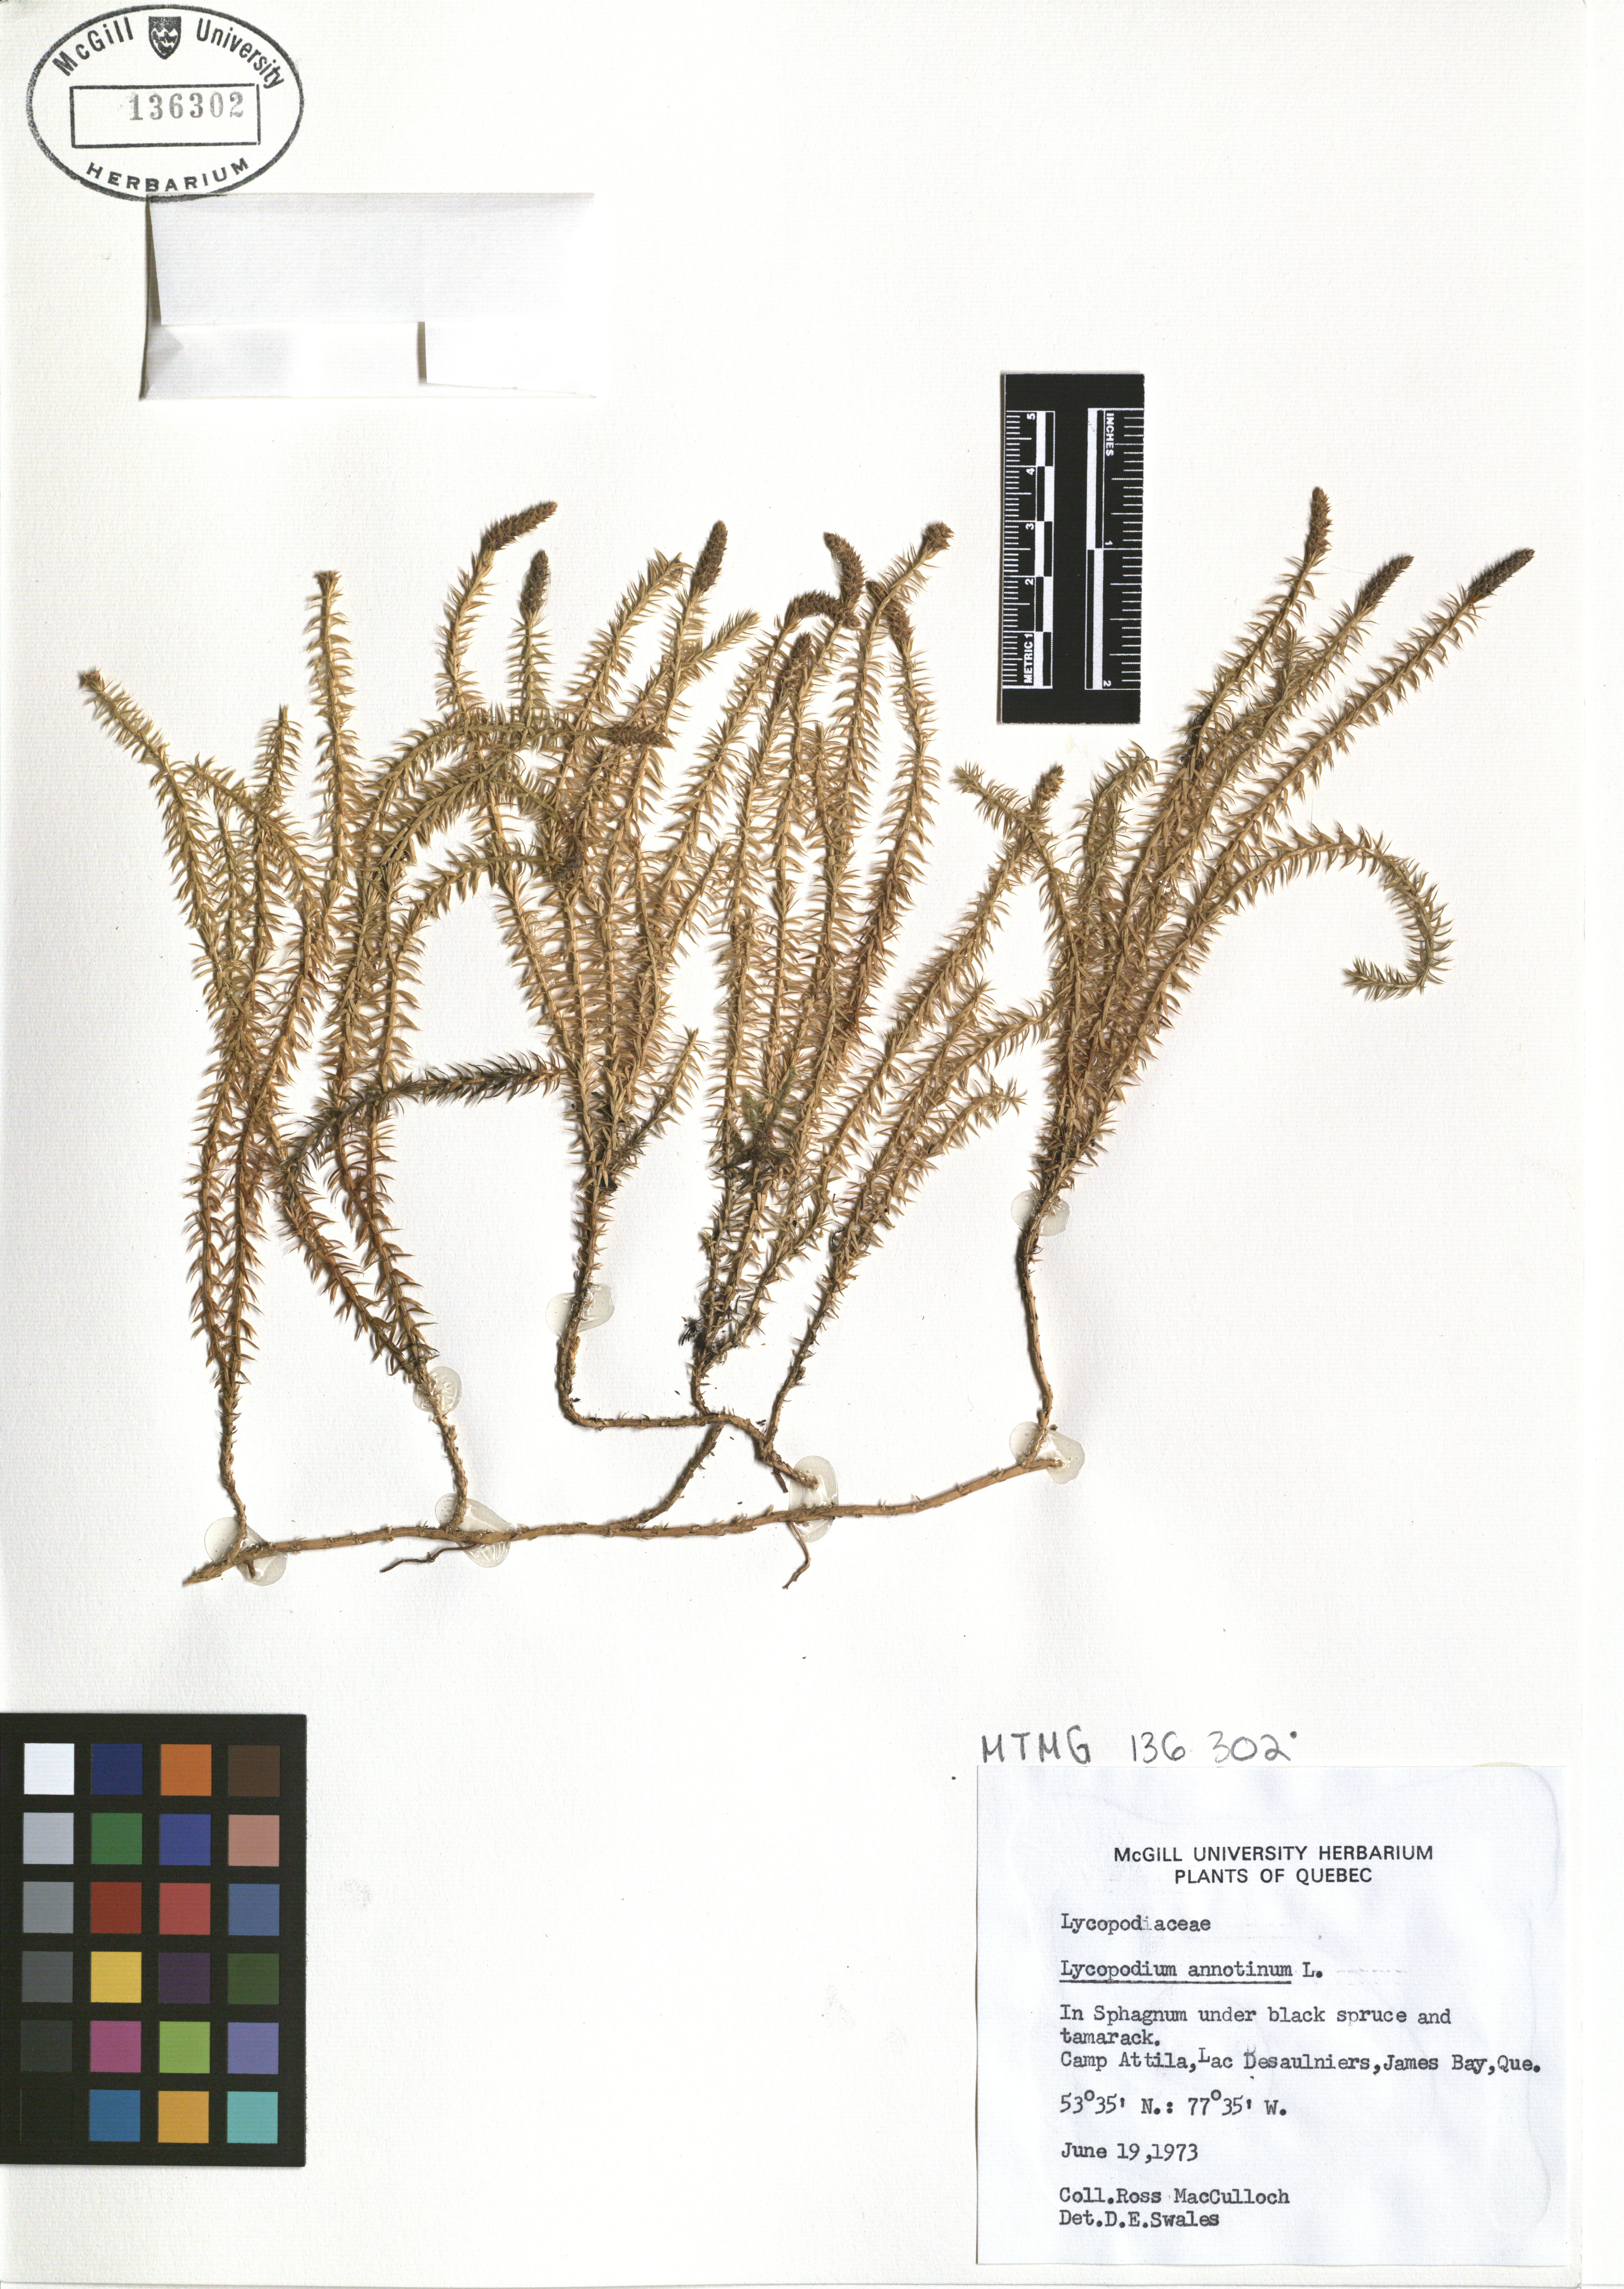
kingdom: Plantae
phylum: Tracheophyta
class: Lycopodiopsida
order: Lycopodiales
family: Lycopodiaceae
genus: Spinulum
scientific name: Spinulum annotinum
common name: Interrupted club-moss
